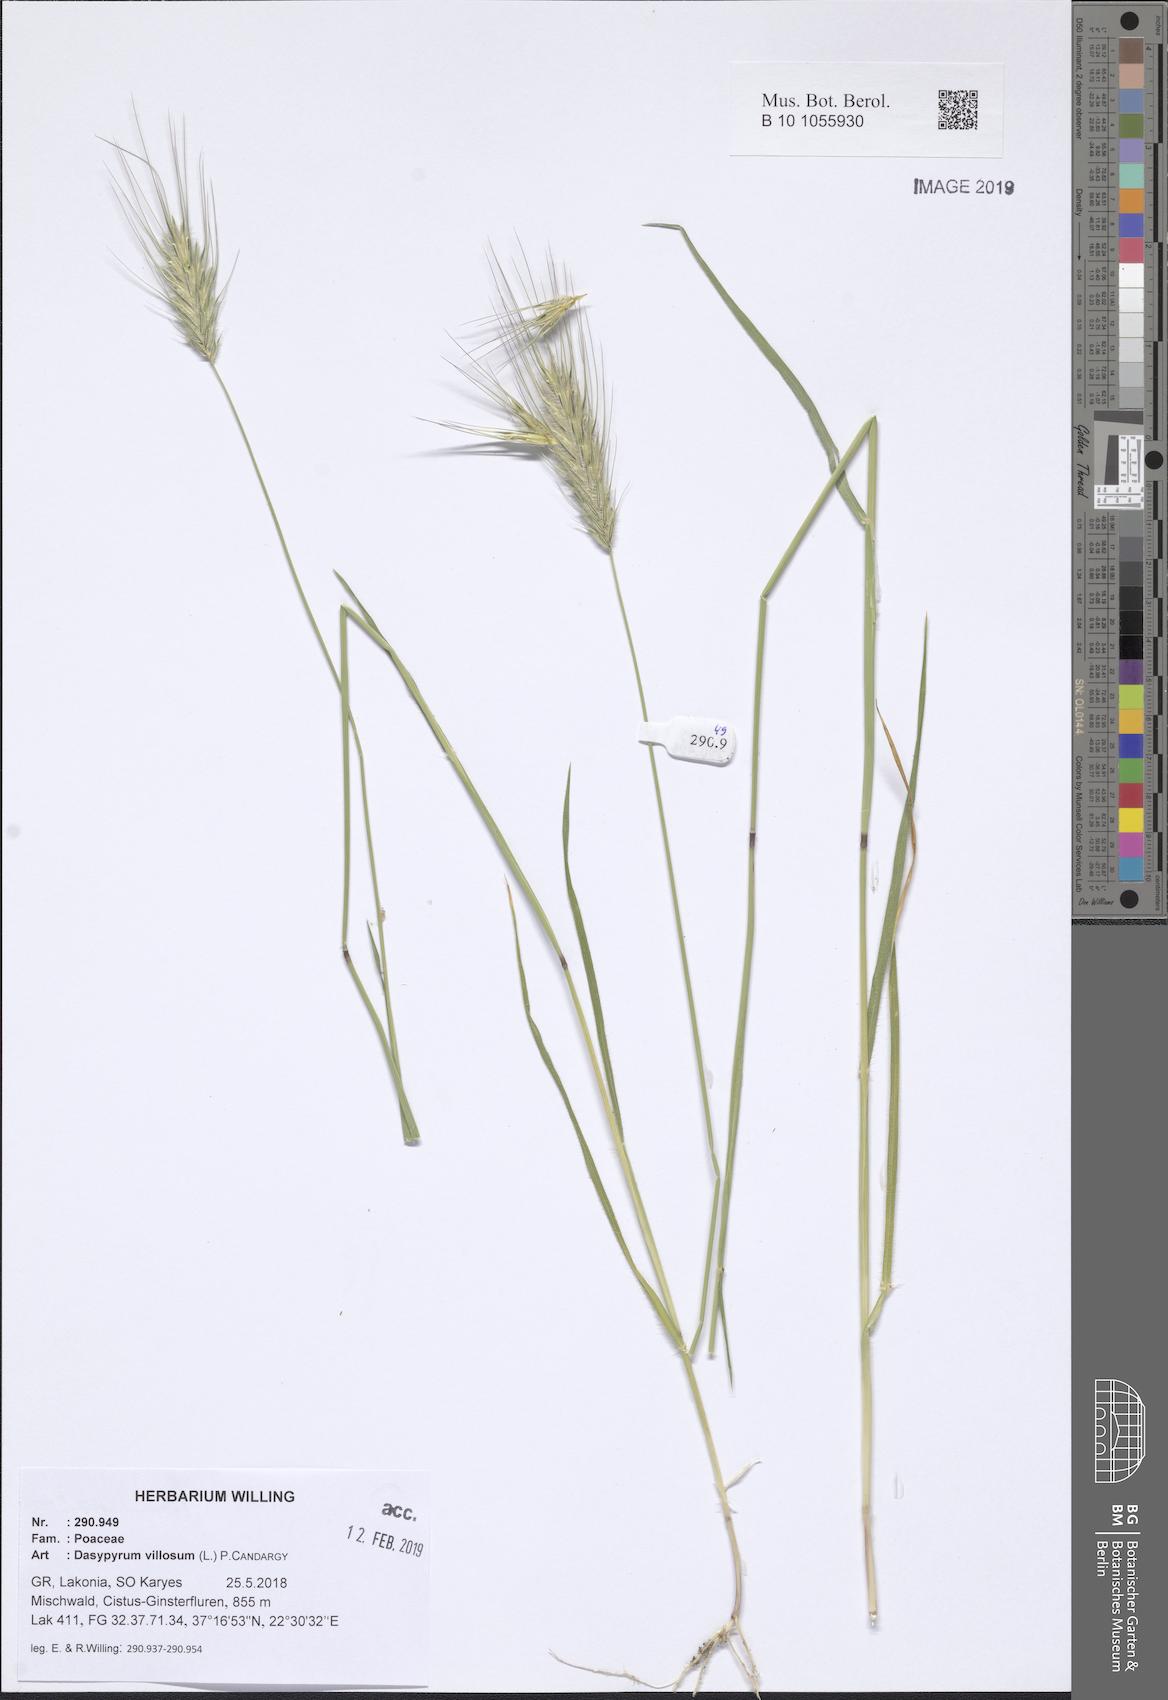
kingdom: Plantae
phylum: Tracheophyta
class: Liliopsida
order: Poales
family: Poaceae
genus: Dasypyrum
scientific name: Dasypyrum villosum
